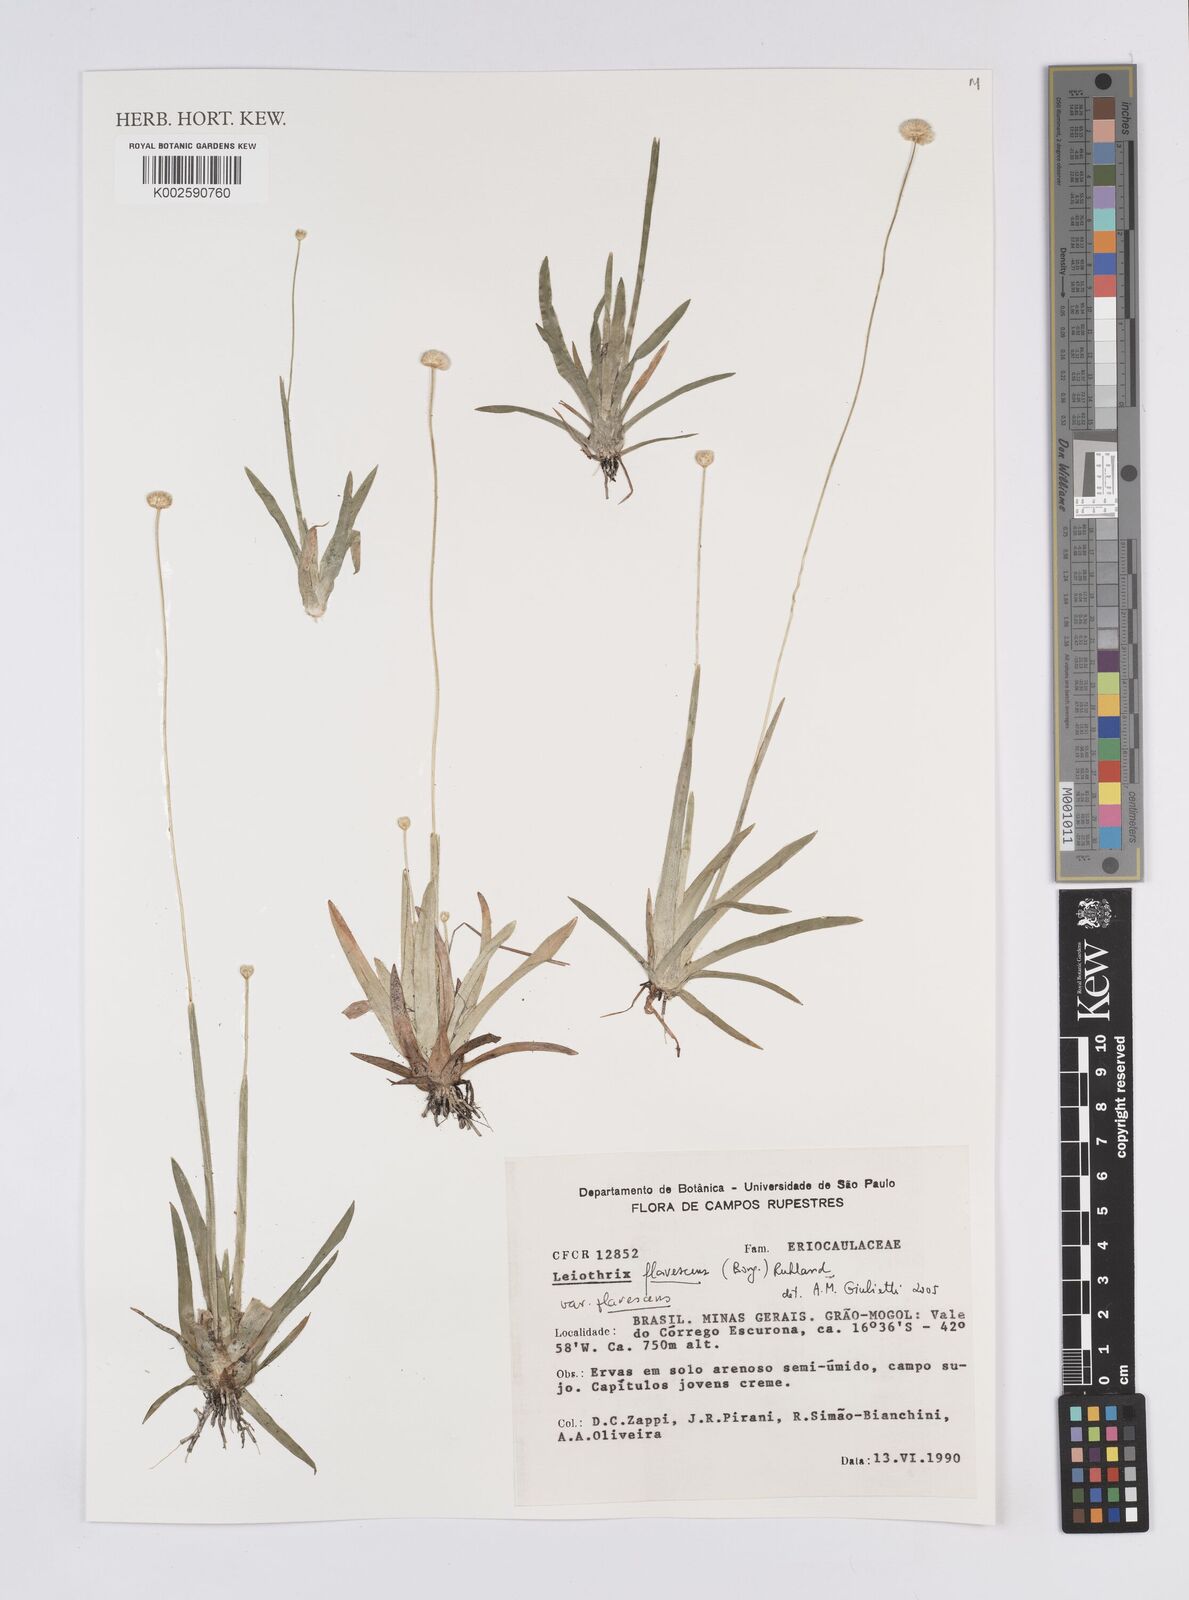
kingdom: Plantae
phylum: Tracheophyta
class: Liliopsida
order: Poales
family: Eriocaulaceae
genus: Leiothrix
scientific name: Leiothrix flavescens
